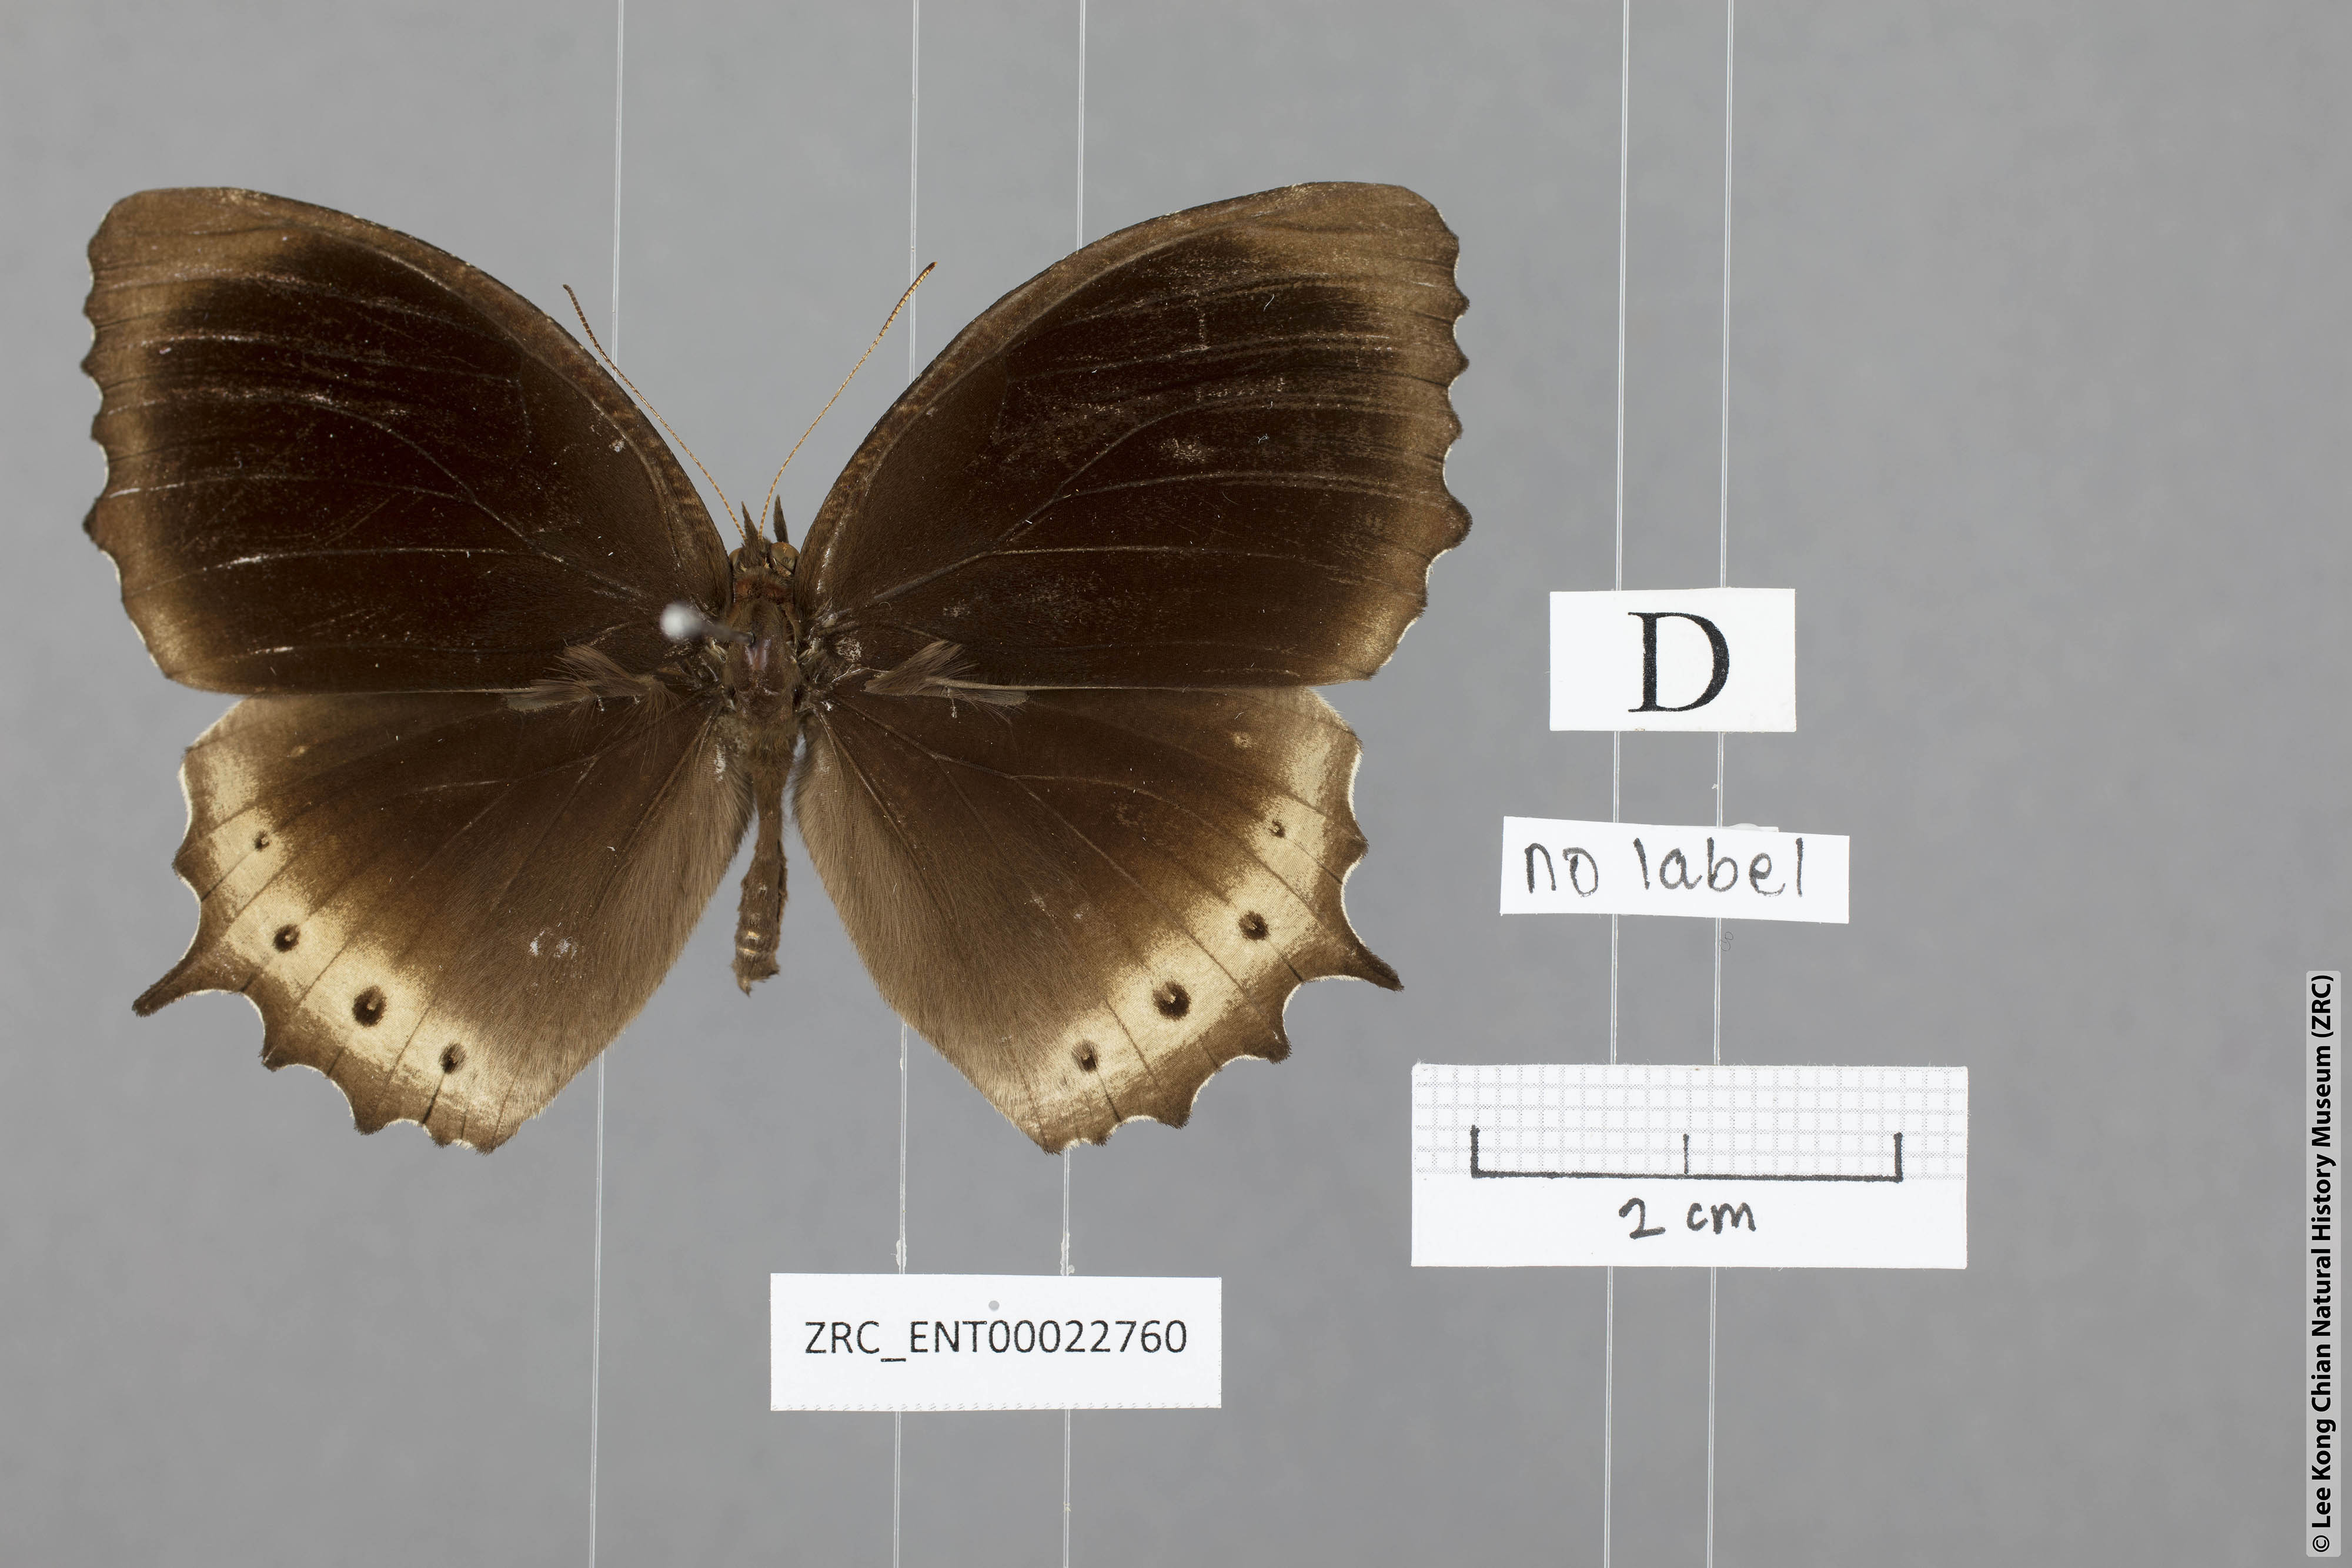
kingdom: Animalia
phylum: Arthropoda
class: Insecta
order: Lepidoptera
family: Nymphalidae
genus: Elymnias
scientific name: Elymnias panthera
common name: Tawny palmfly
